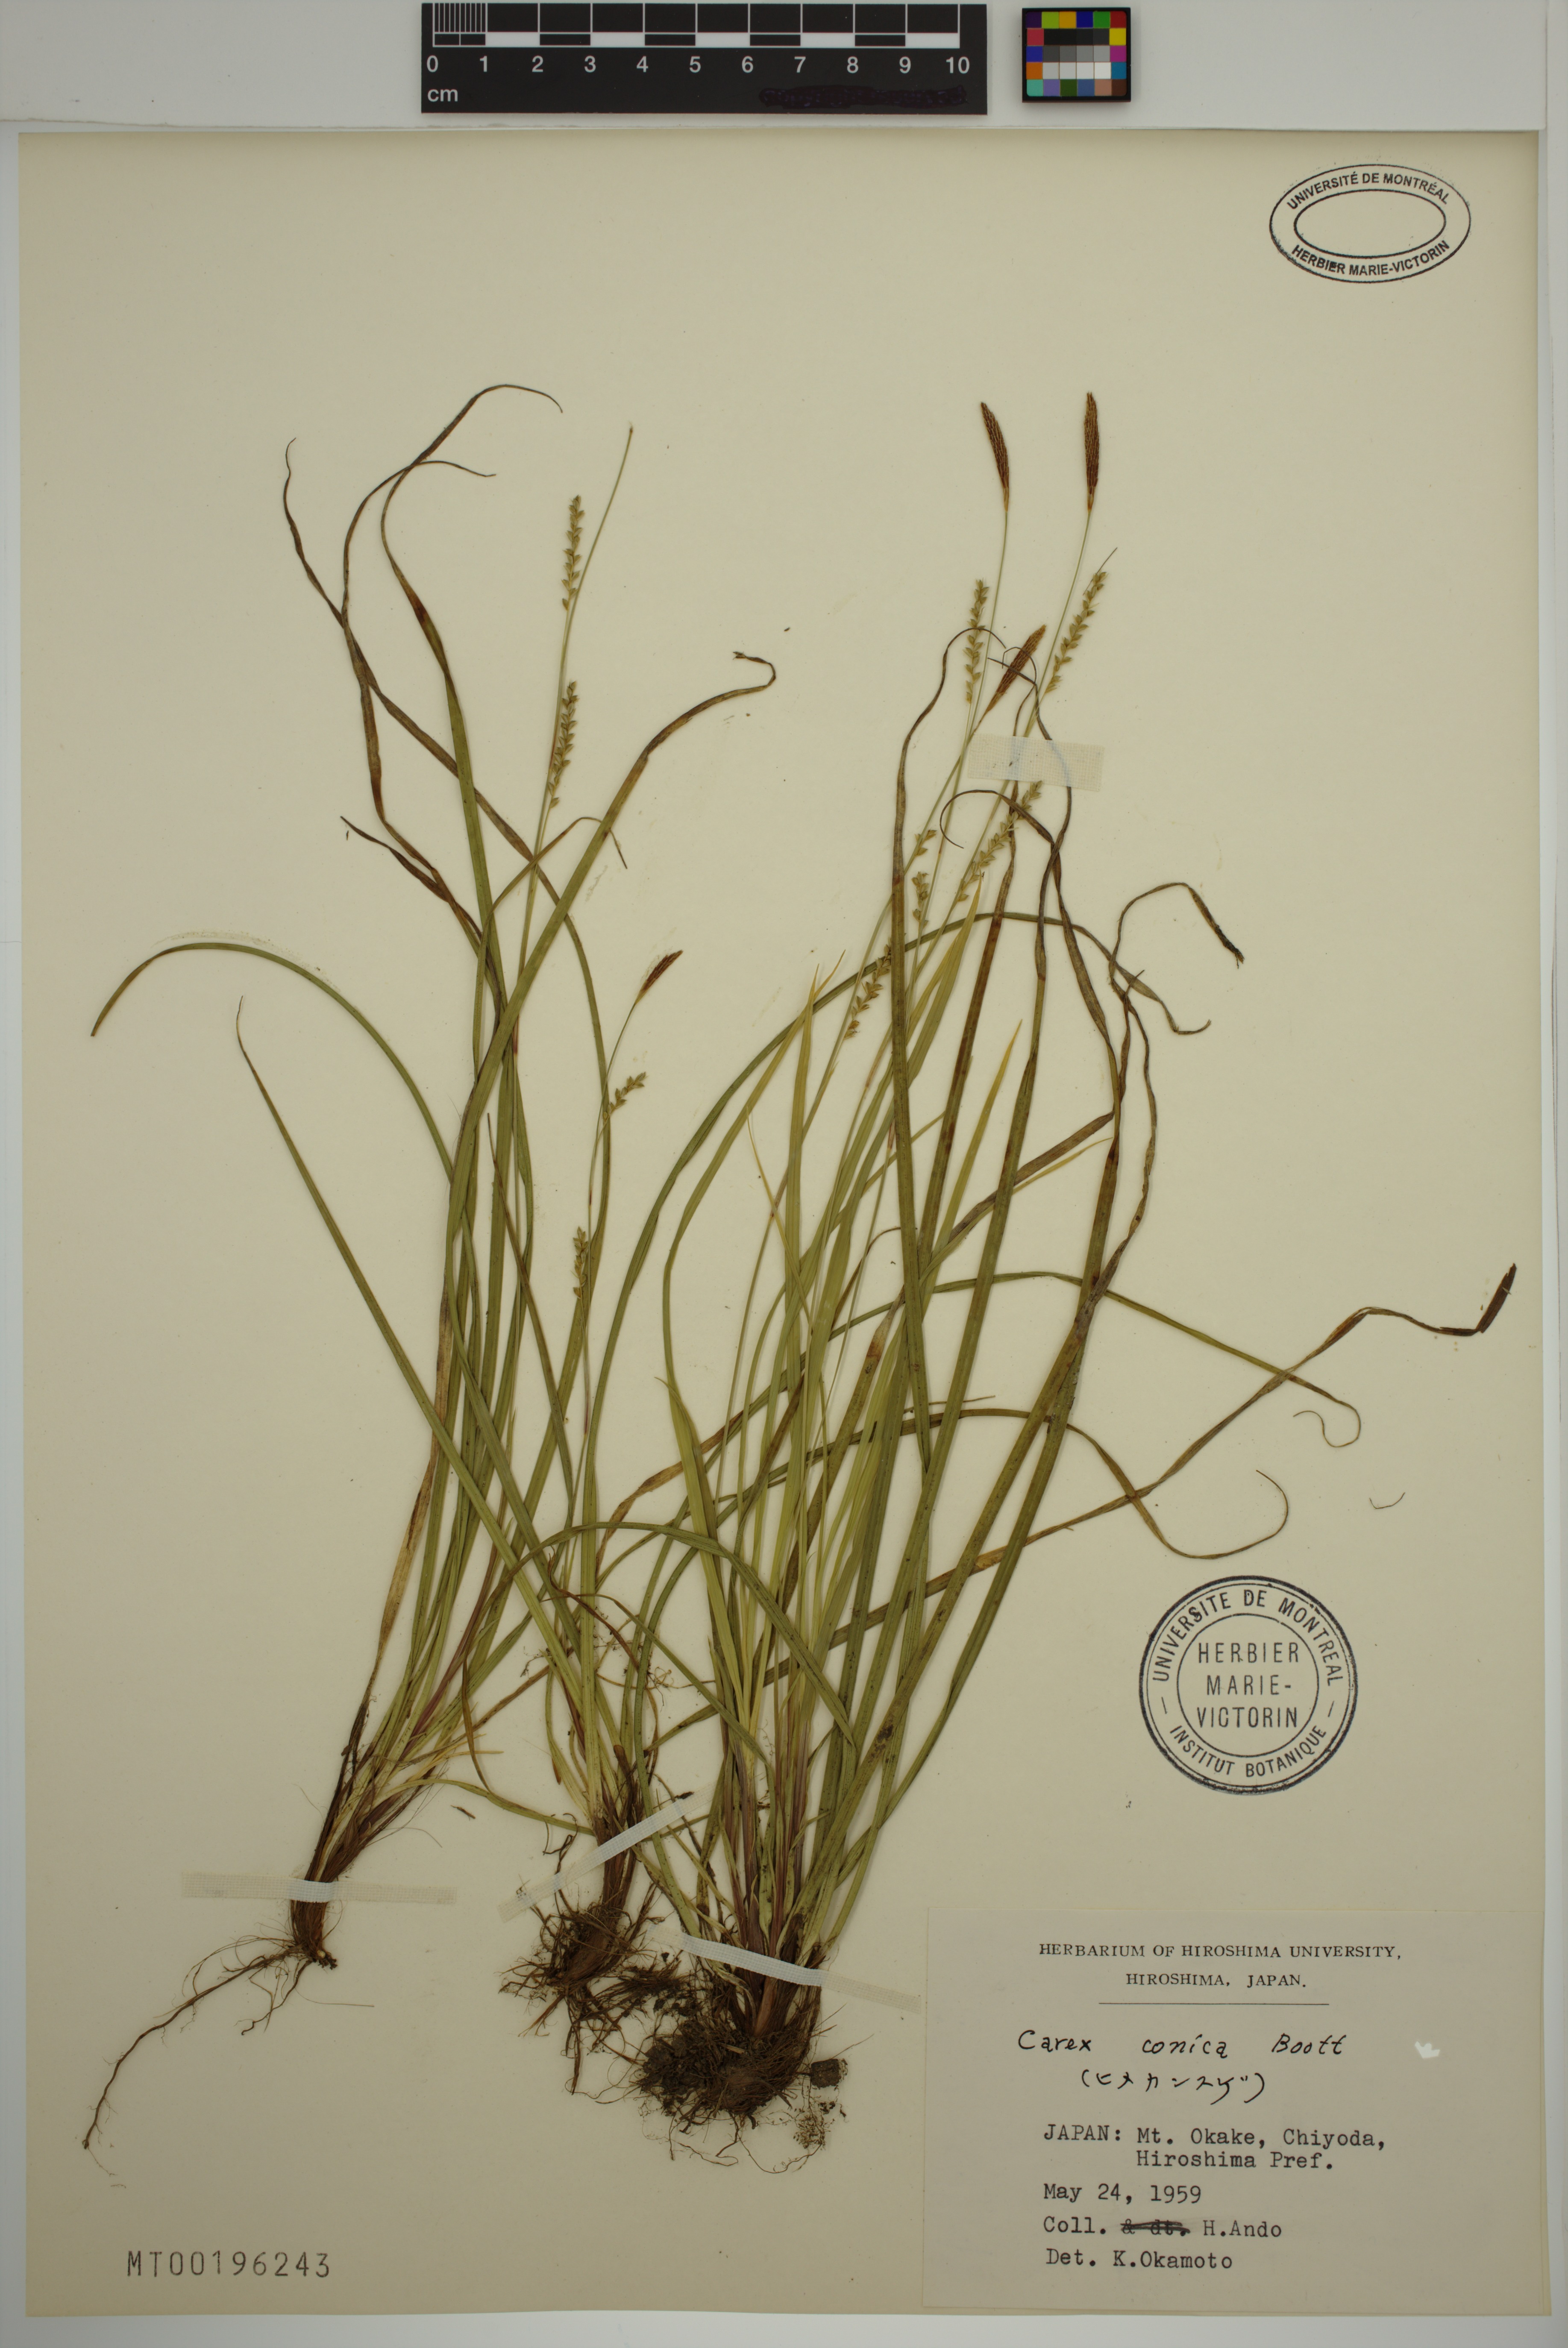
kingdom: Plantae
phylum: Tracheophyta
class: Liliopsida
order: Poales
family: Cyperaceae
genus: Carex
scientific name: Carex conica
